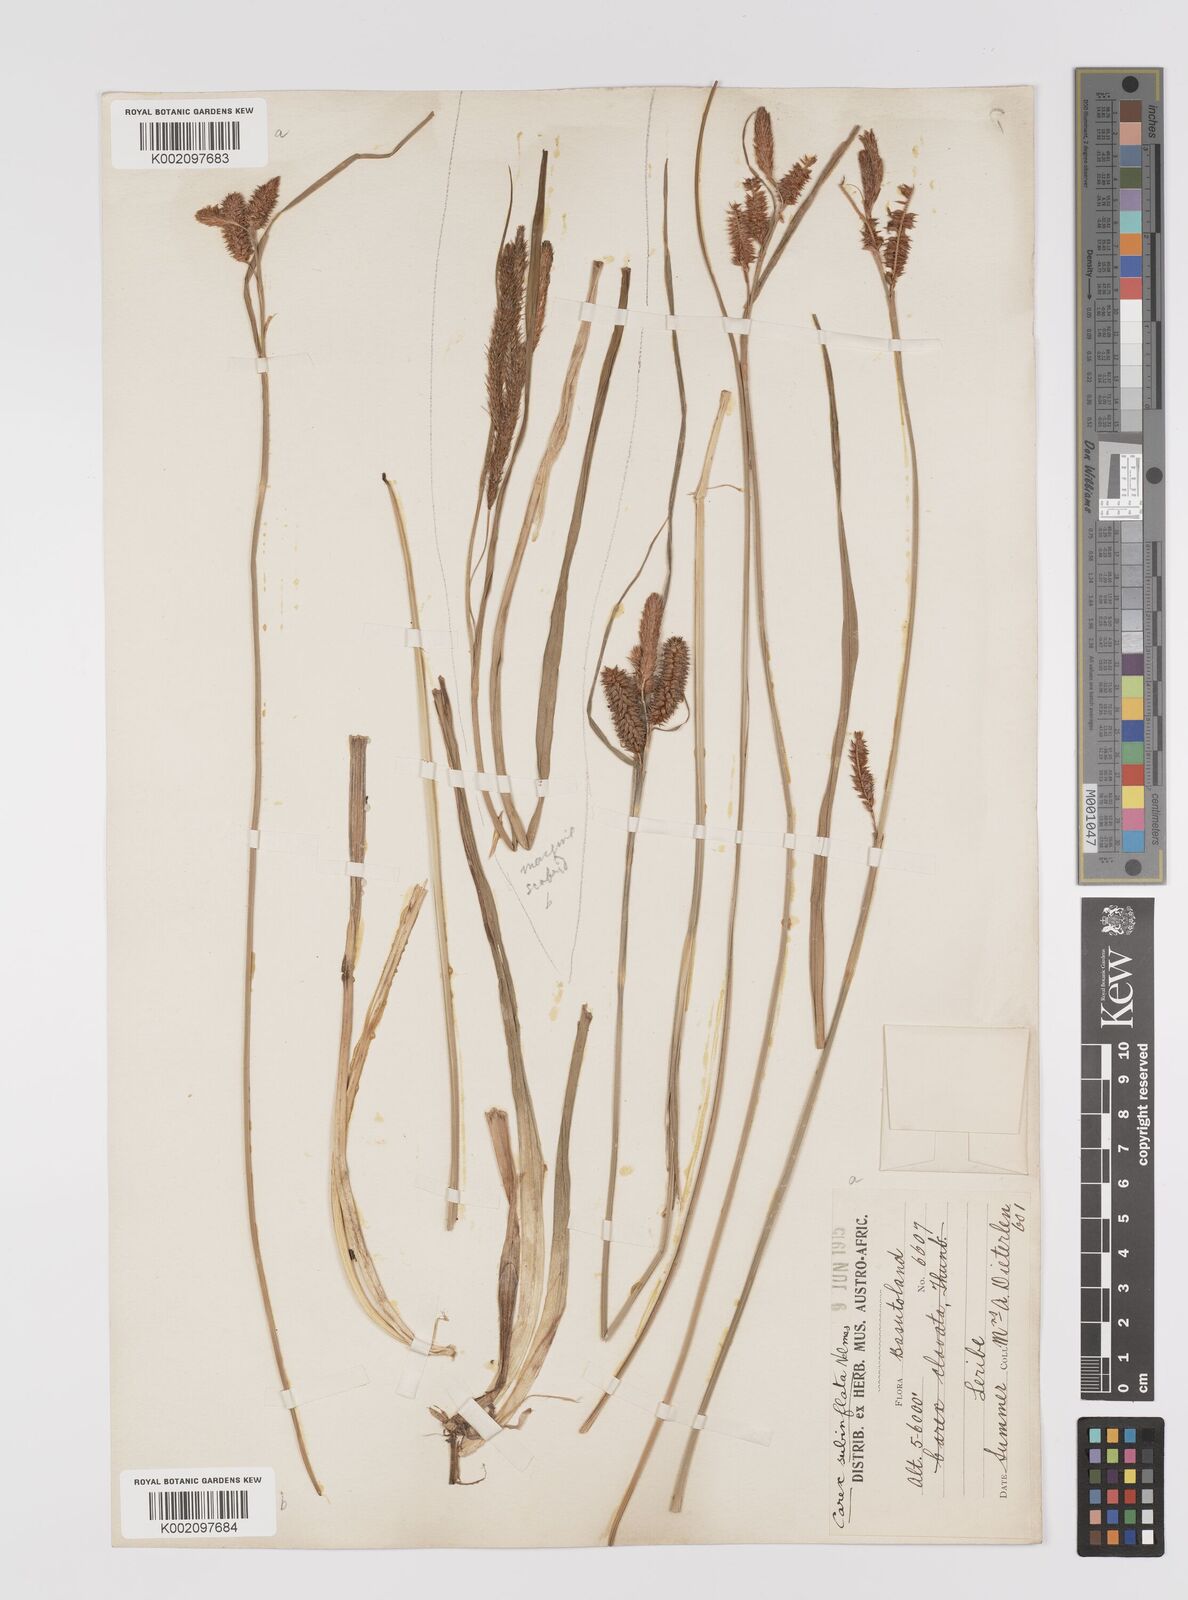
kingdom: Plantae
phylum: Tracheophyta
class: Liliopsida
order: Poales
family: Cyperaceae
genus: Carex
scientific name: Carex subinflata
